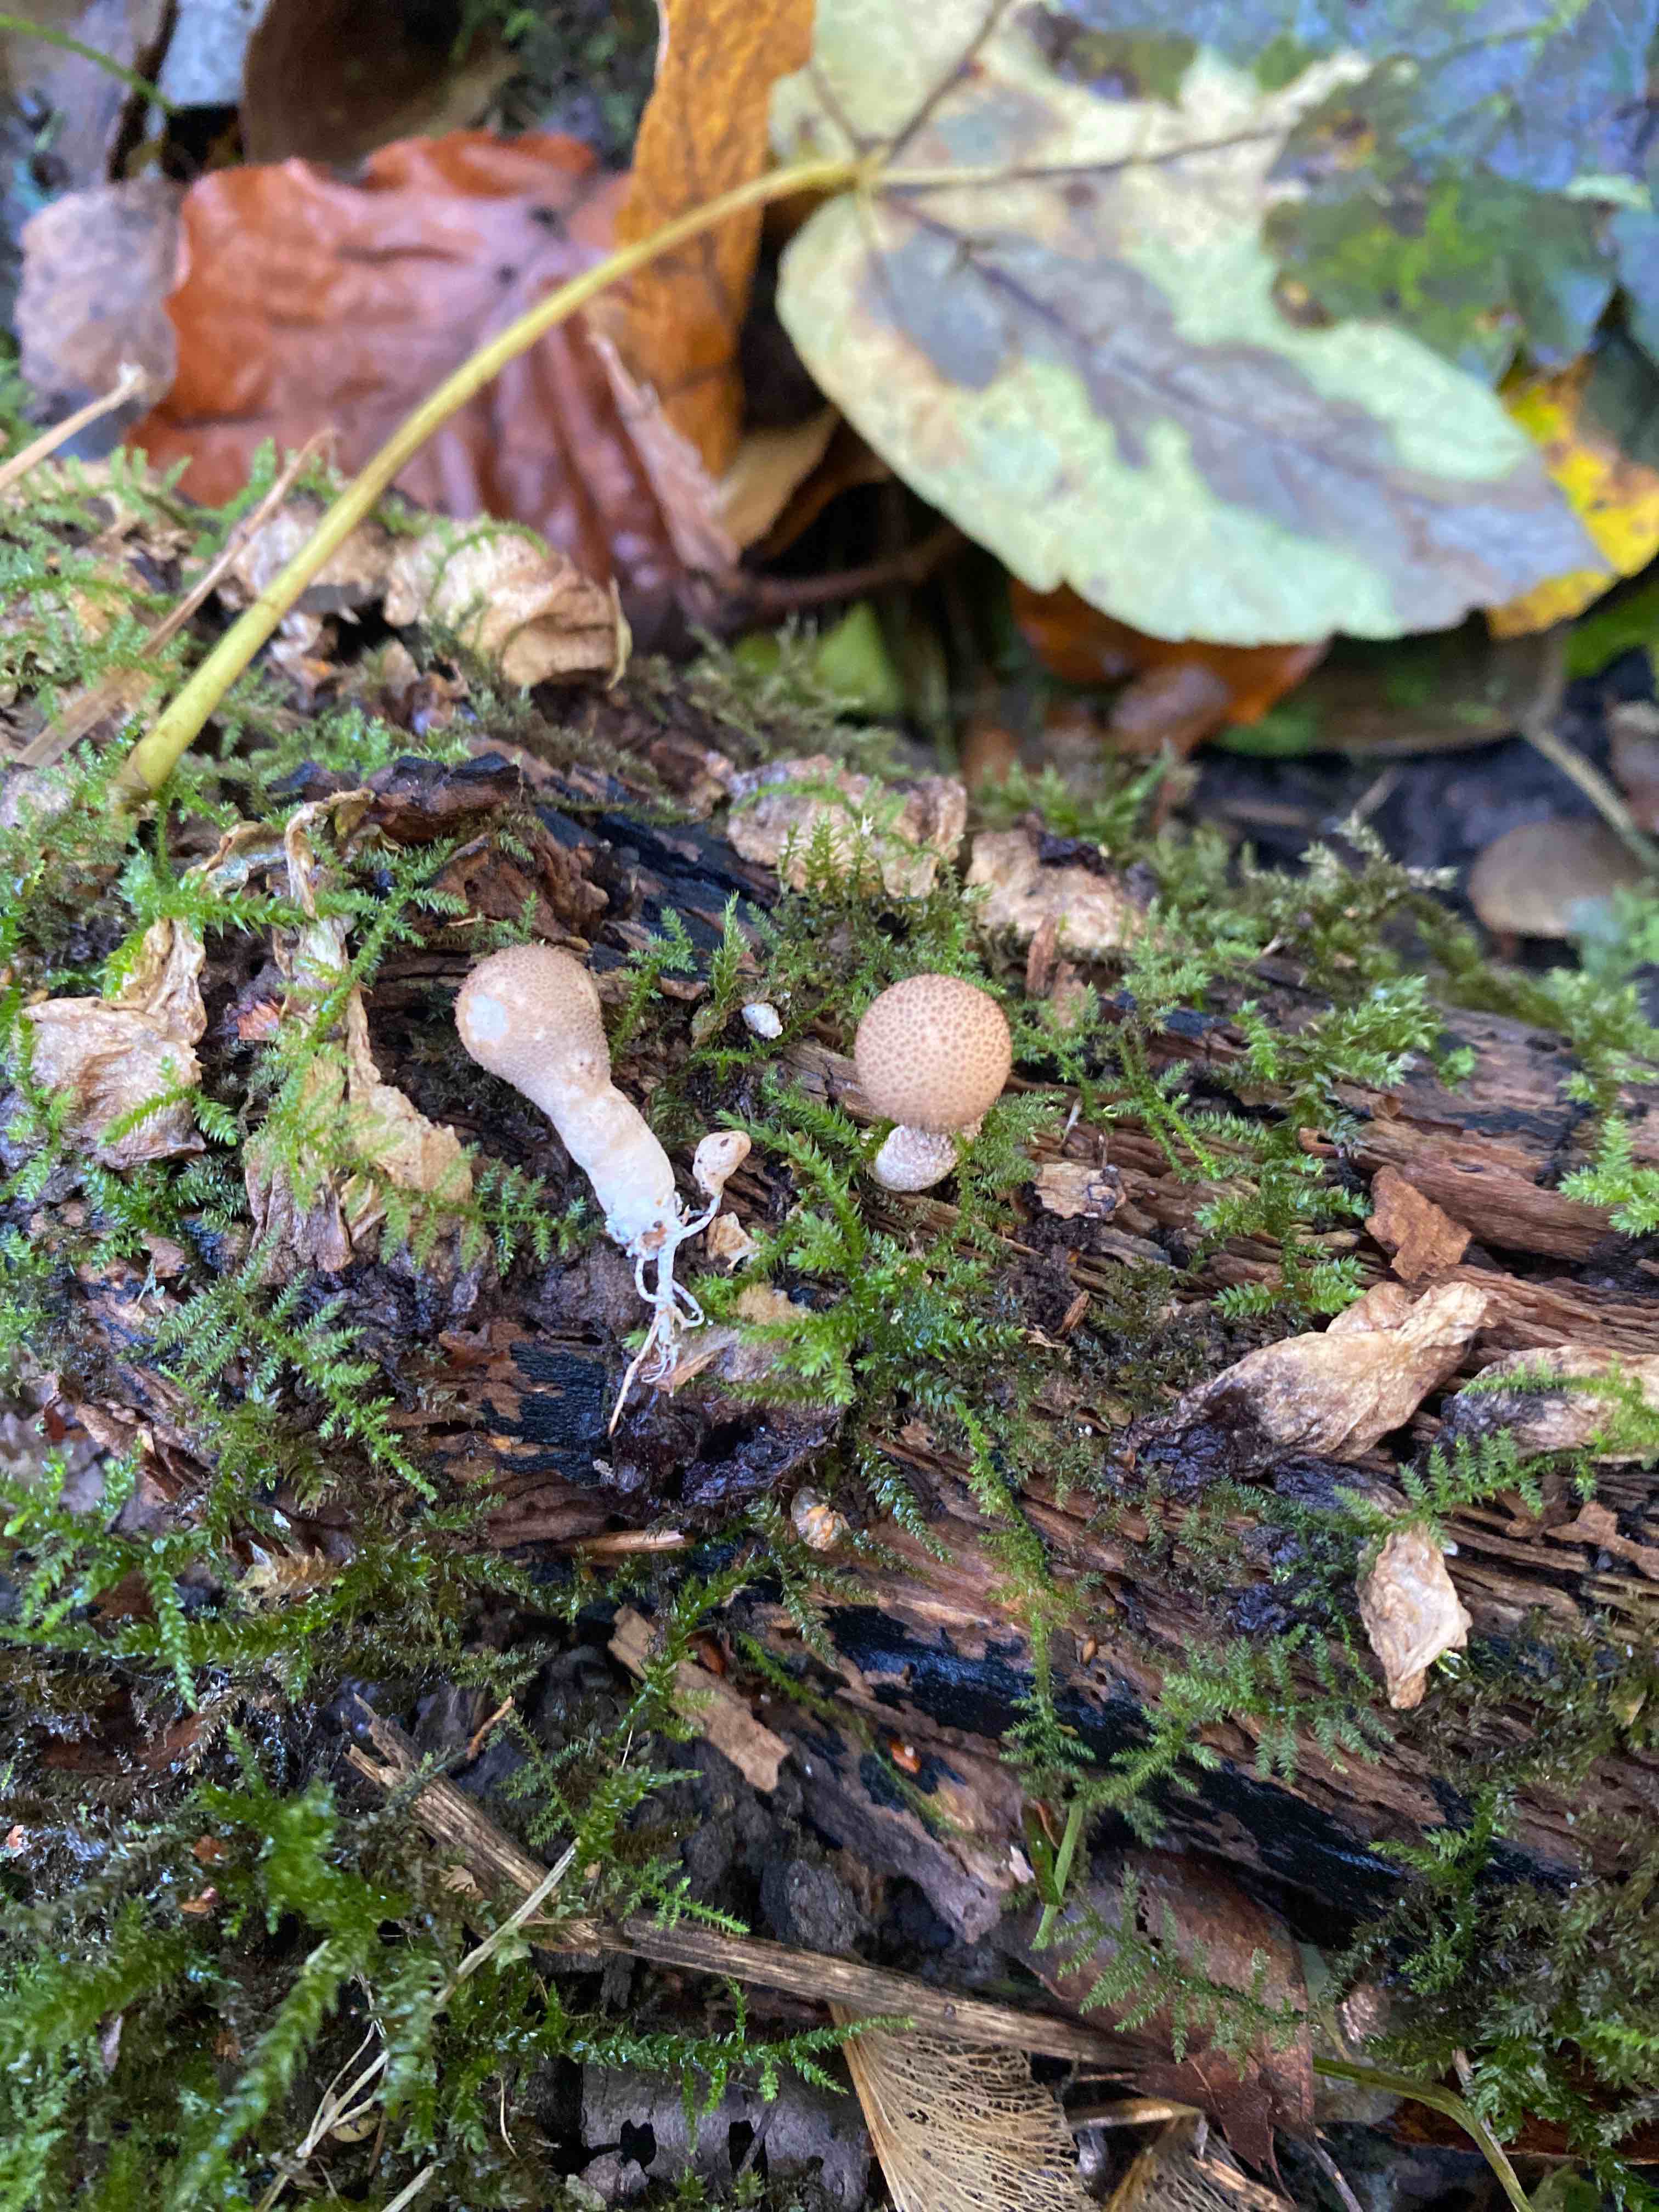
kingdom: Fungi
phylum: Basidiomycota
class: Agaricomycetes
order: Agaricales
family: Lycoperdaceae
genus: Apioperdon
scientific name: Apioperdon pyriforme
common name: pære-støvbold
